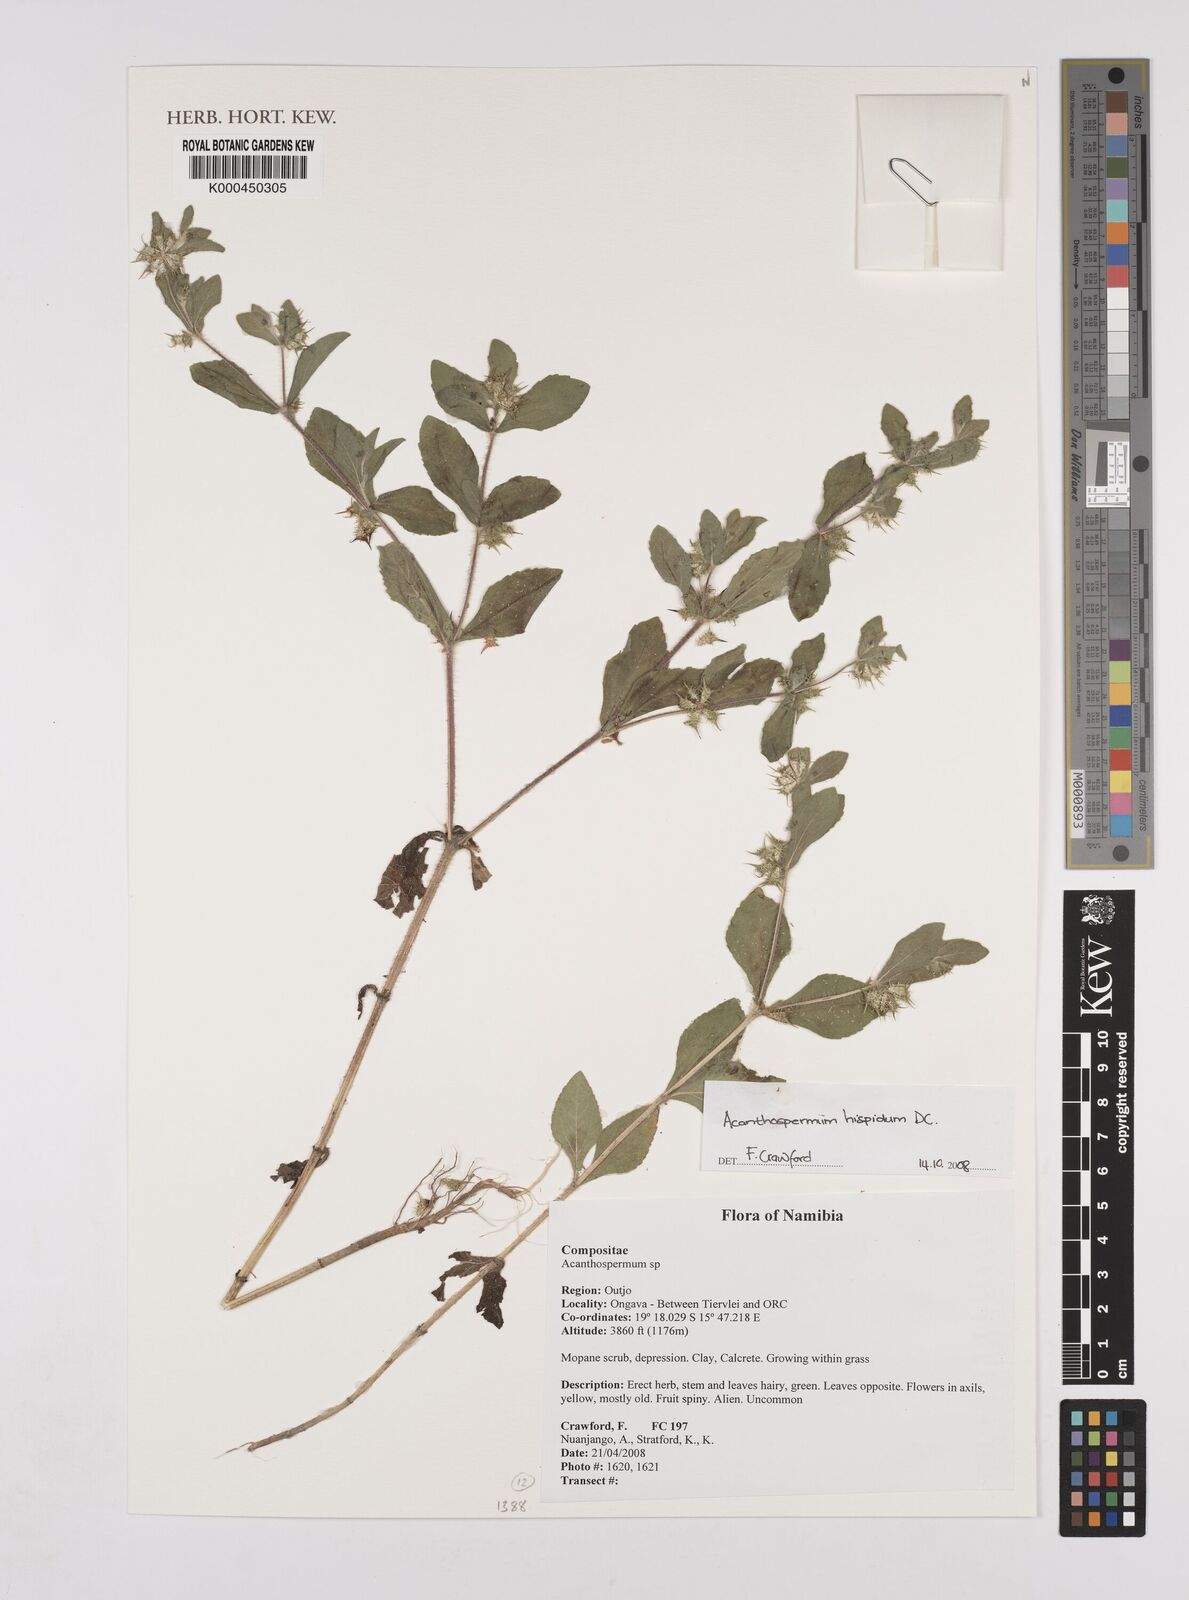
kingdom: Plantae
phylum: Tracheophyta
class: Magnoliopsida
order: Asterales
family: Asteraceae
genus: Acanthospermum
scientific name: Acanthospermum hispidum
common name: Hispid starbur
